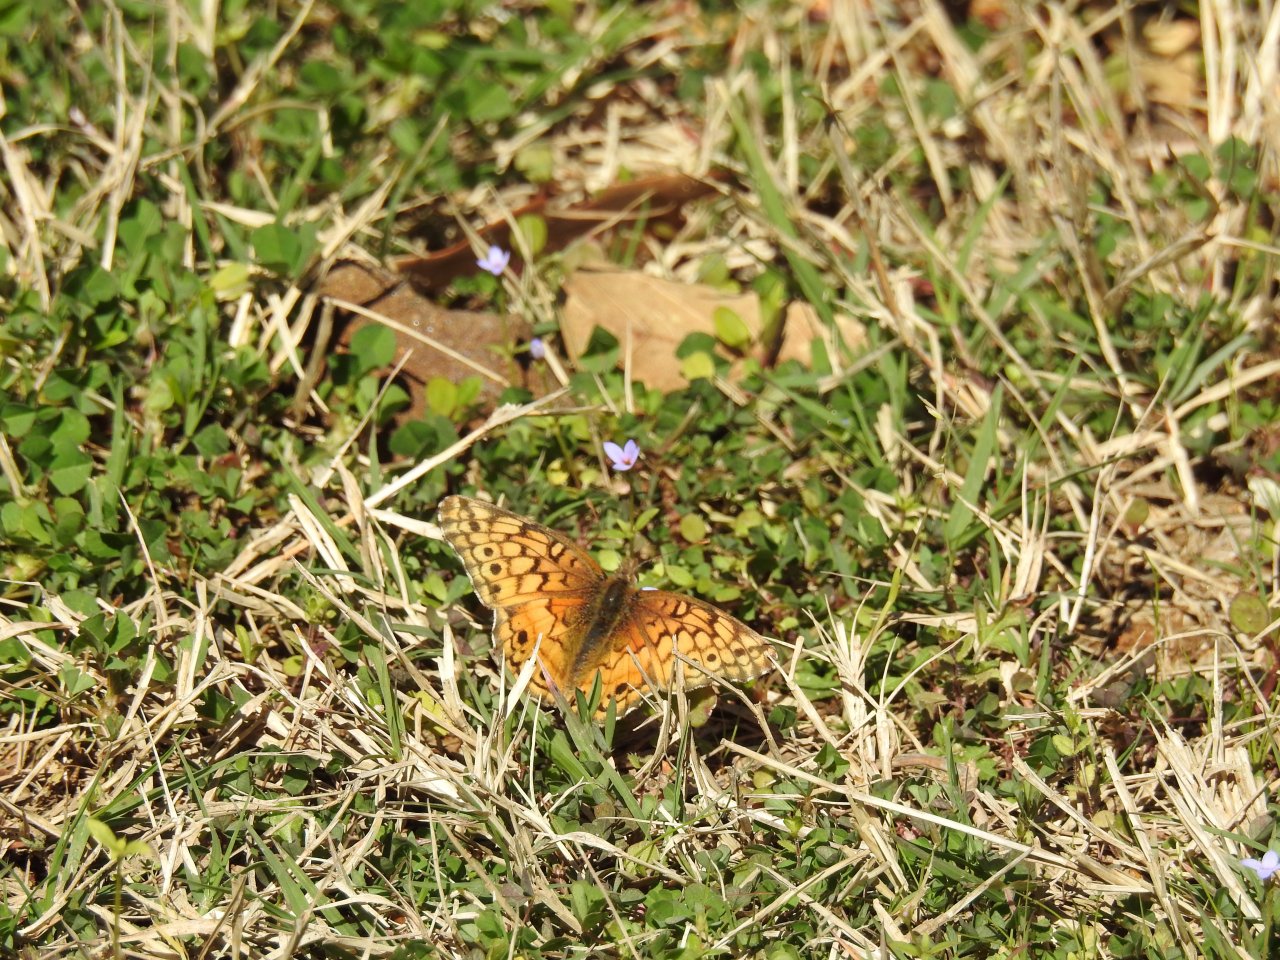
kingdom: Animalia
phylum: Arthropoda
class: Insecta
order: Lepidoptera
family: Nymphalidae
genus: Euptoieta
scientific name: Euptoieta claudia
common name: Variegated Fritillary
